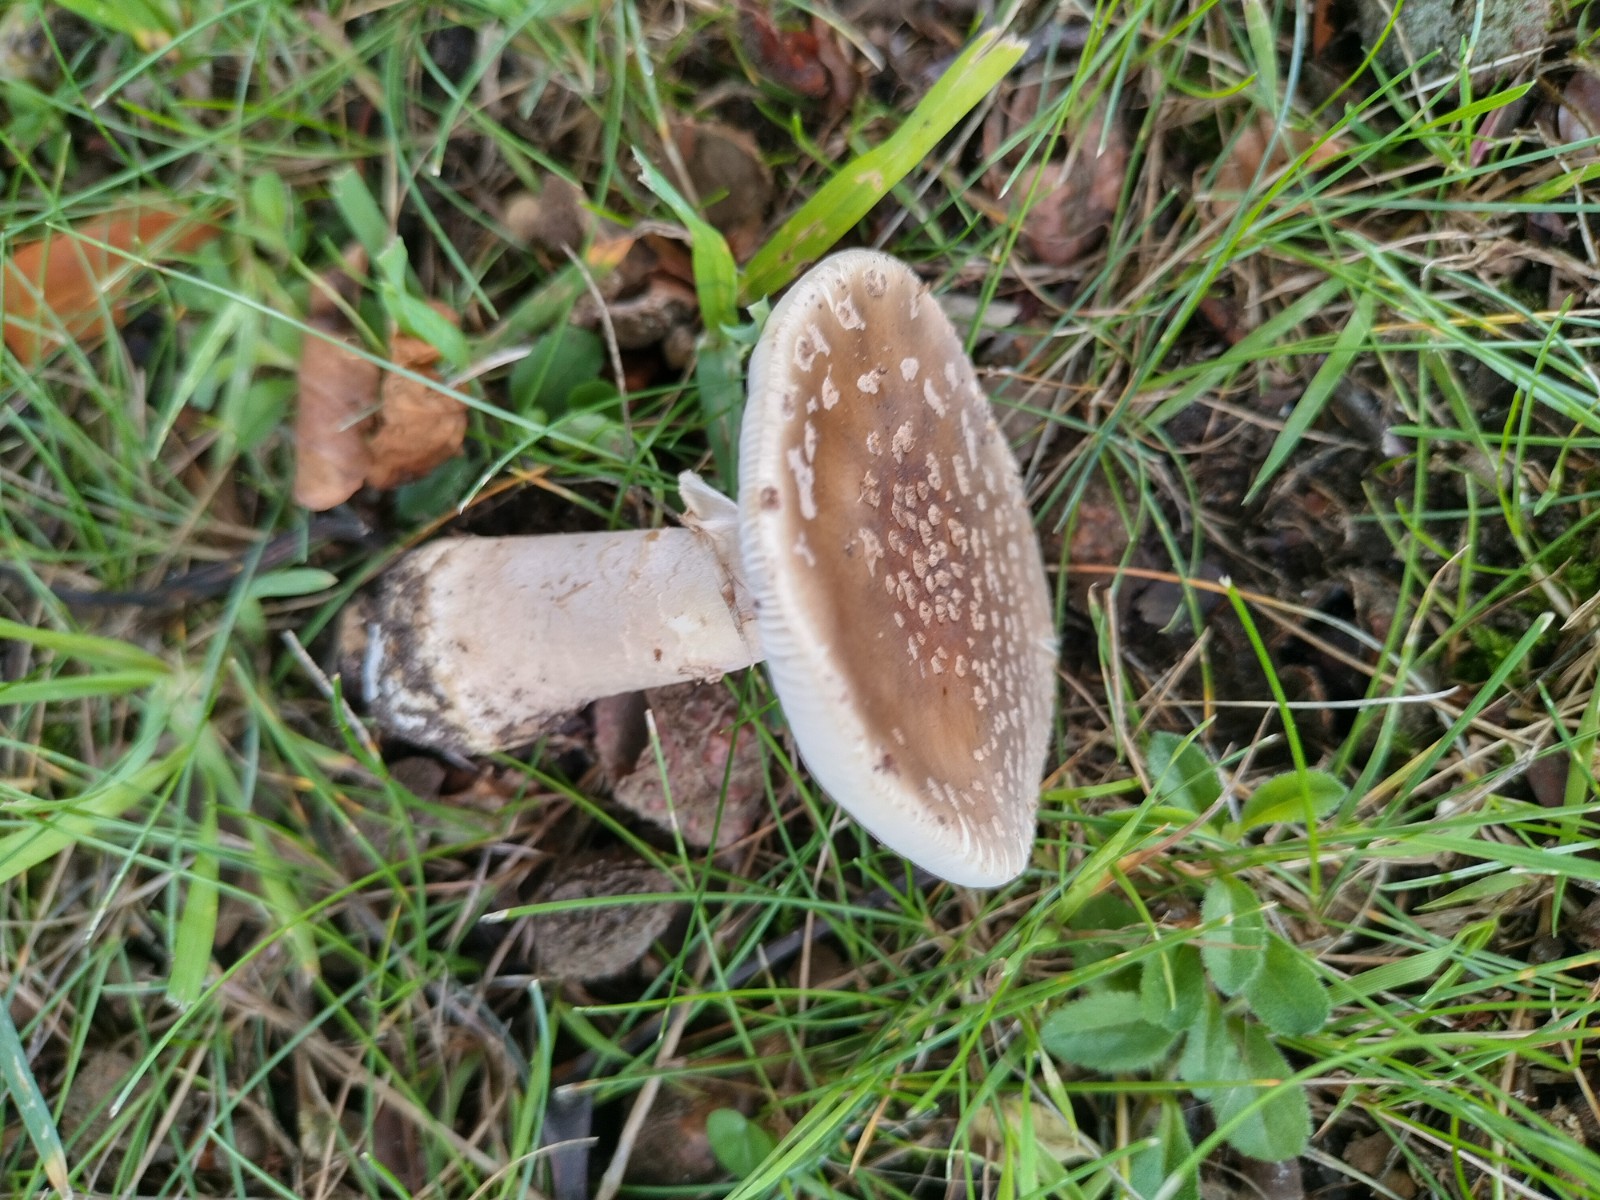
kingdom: Fungi
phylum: Basidiomycota
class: Agaricomycetes
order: Agaricales
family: Amanitaceae
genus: Amanita
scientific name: Amanita pantherina
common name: panter-fluesvamp
